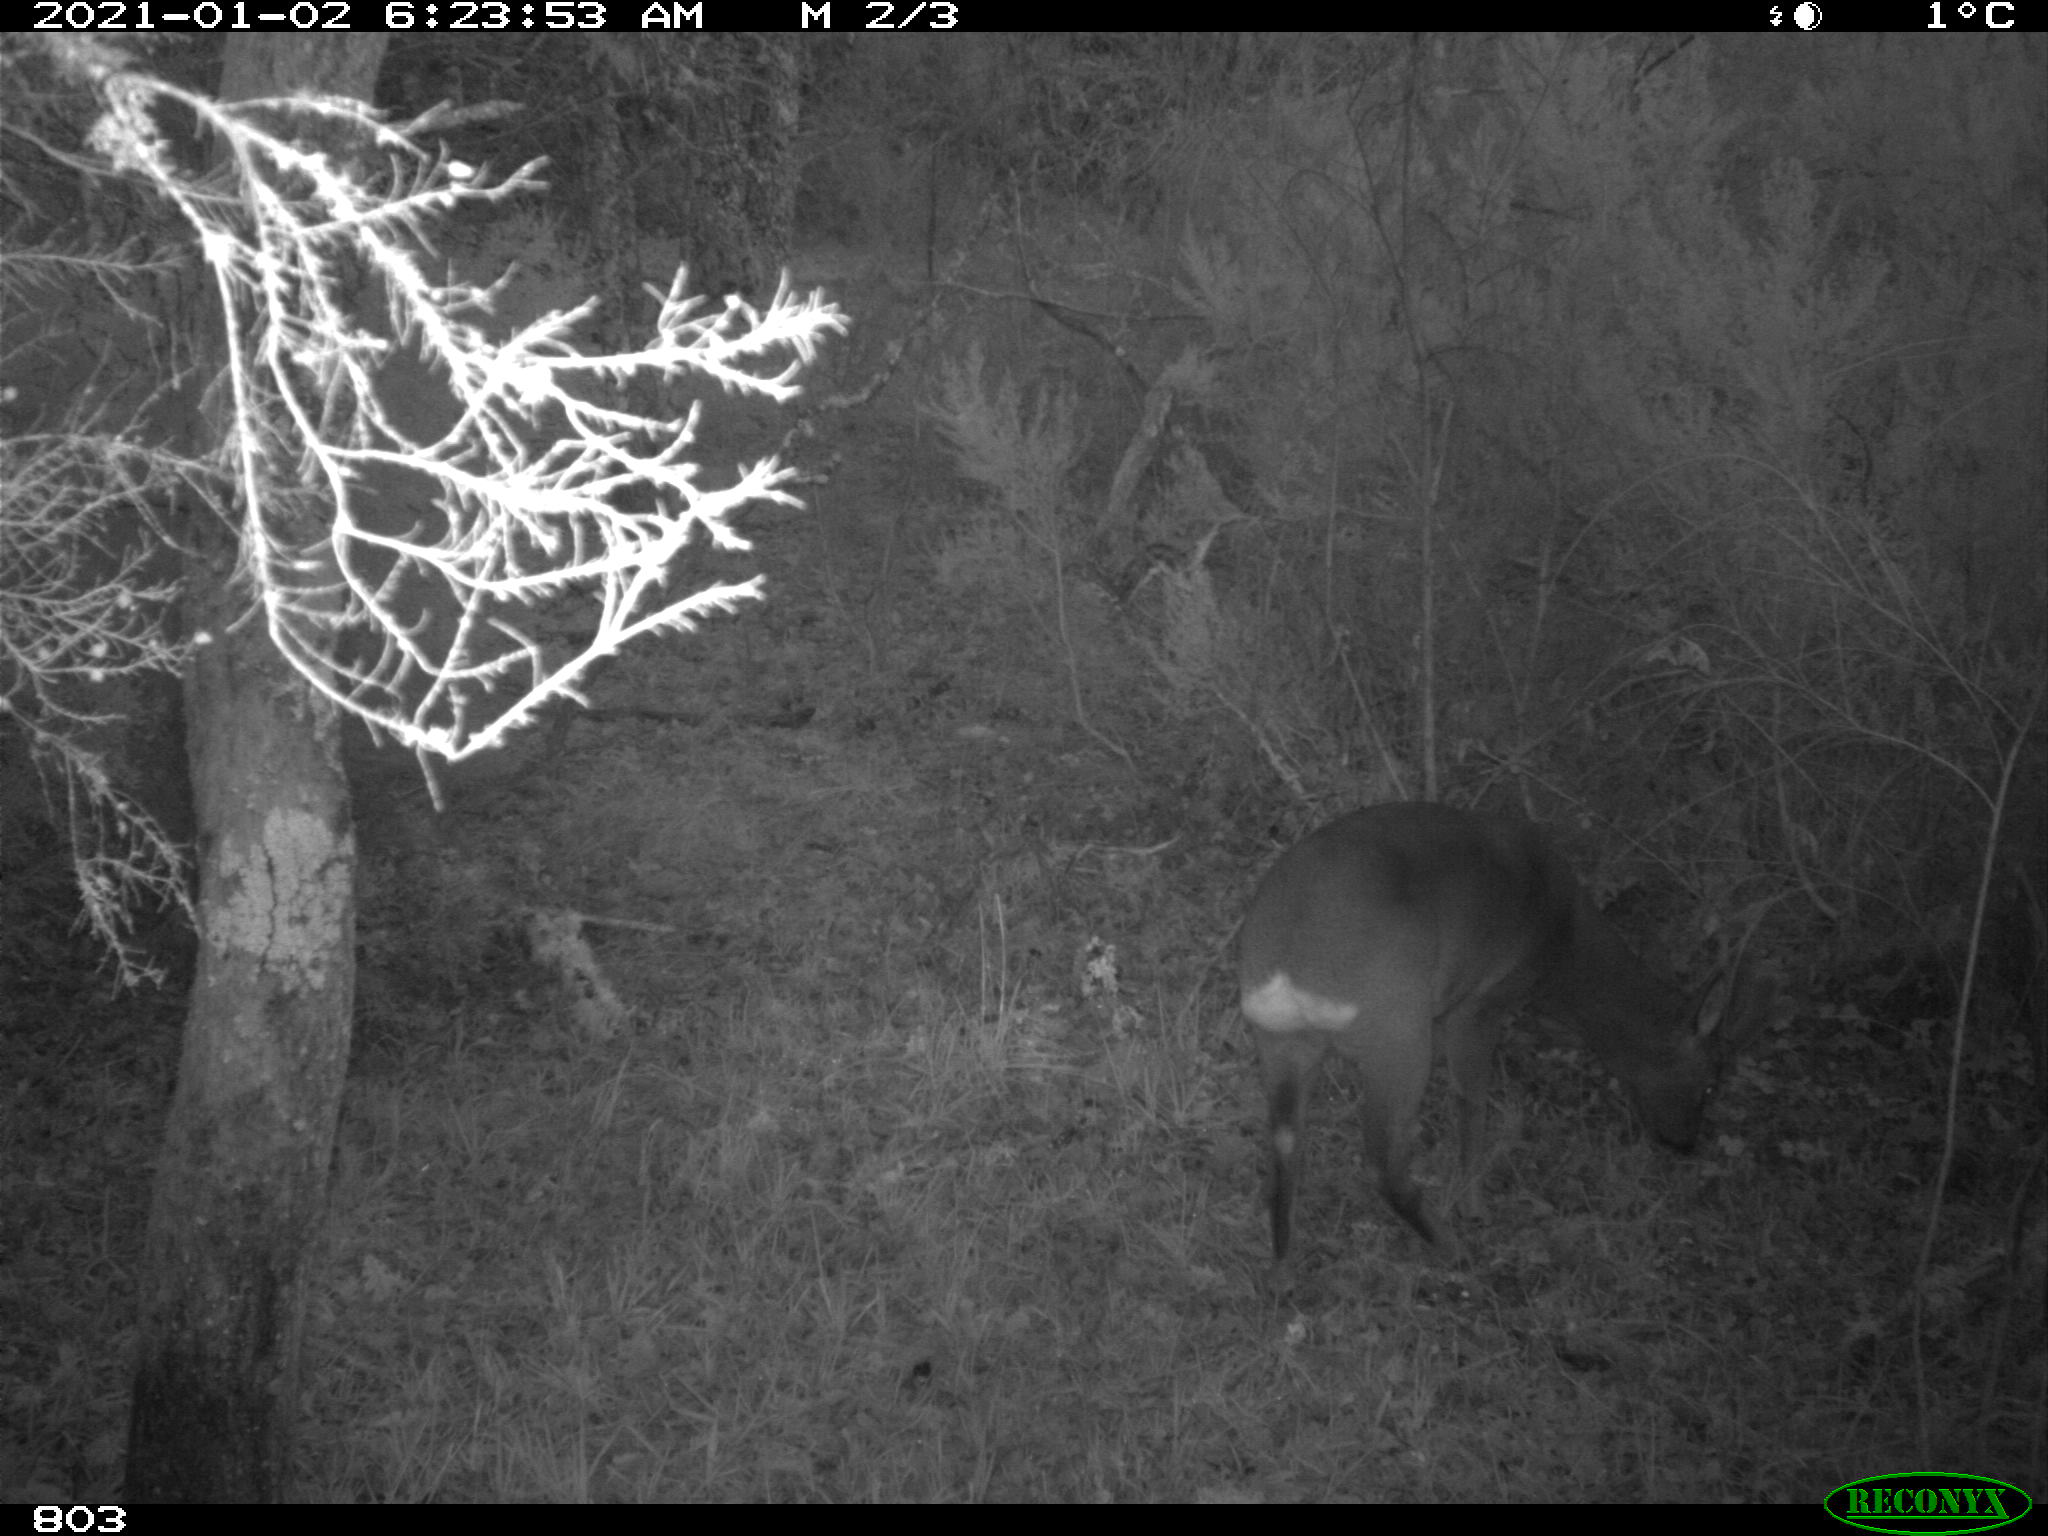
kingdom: Animalia
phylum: Chordata
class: Mammalia
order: Artiodactyla
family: Cervidae
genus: Capreolus
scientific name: Capreolus capreolus
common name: Western roe deer
